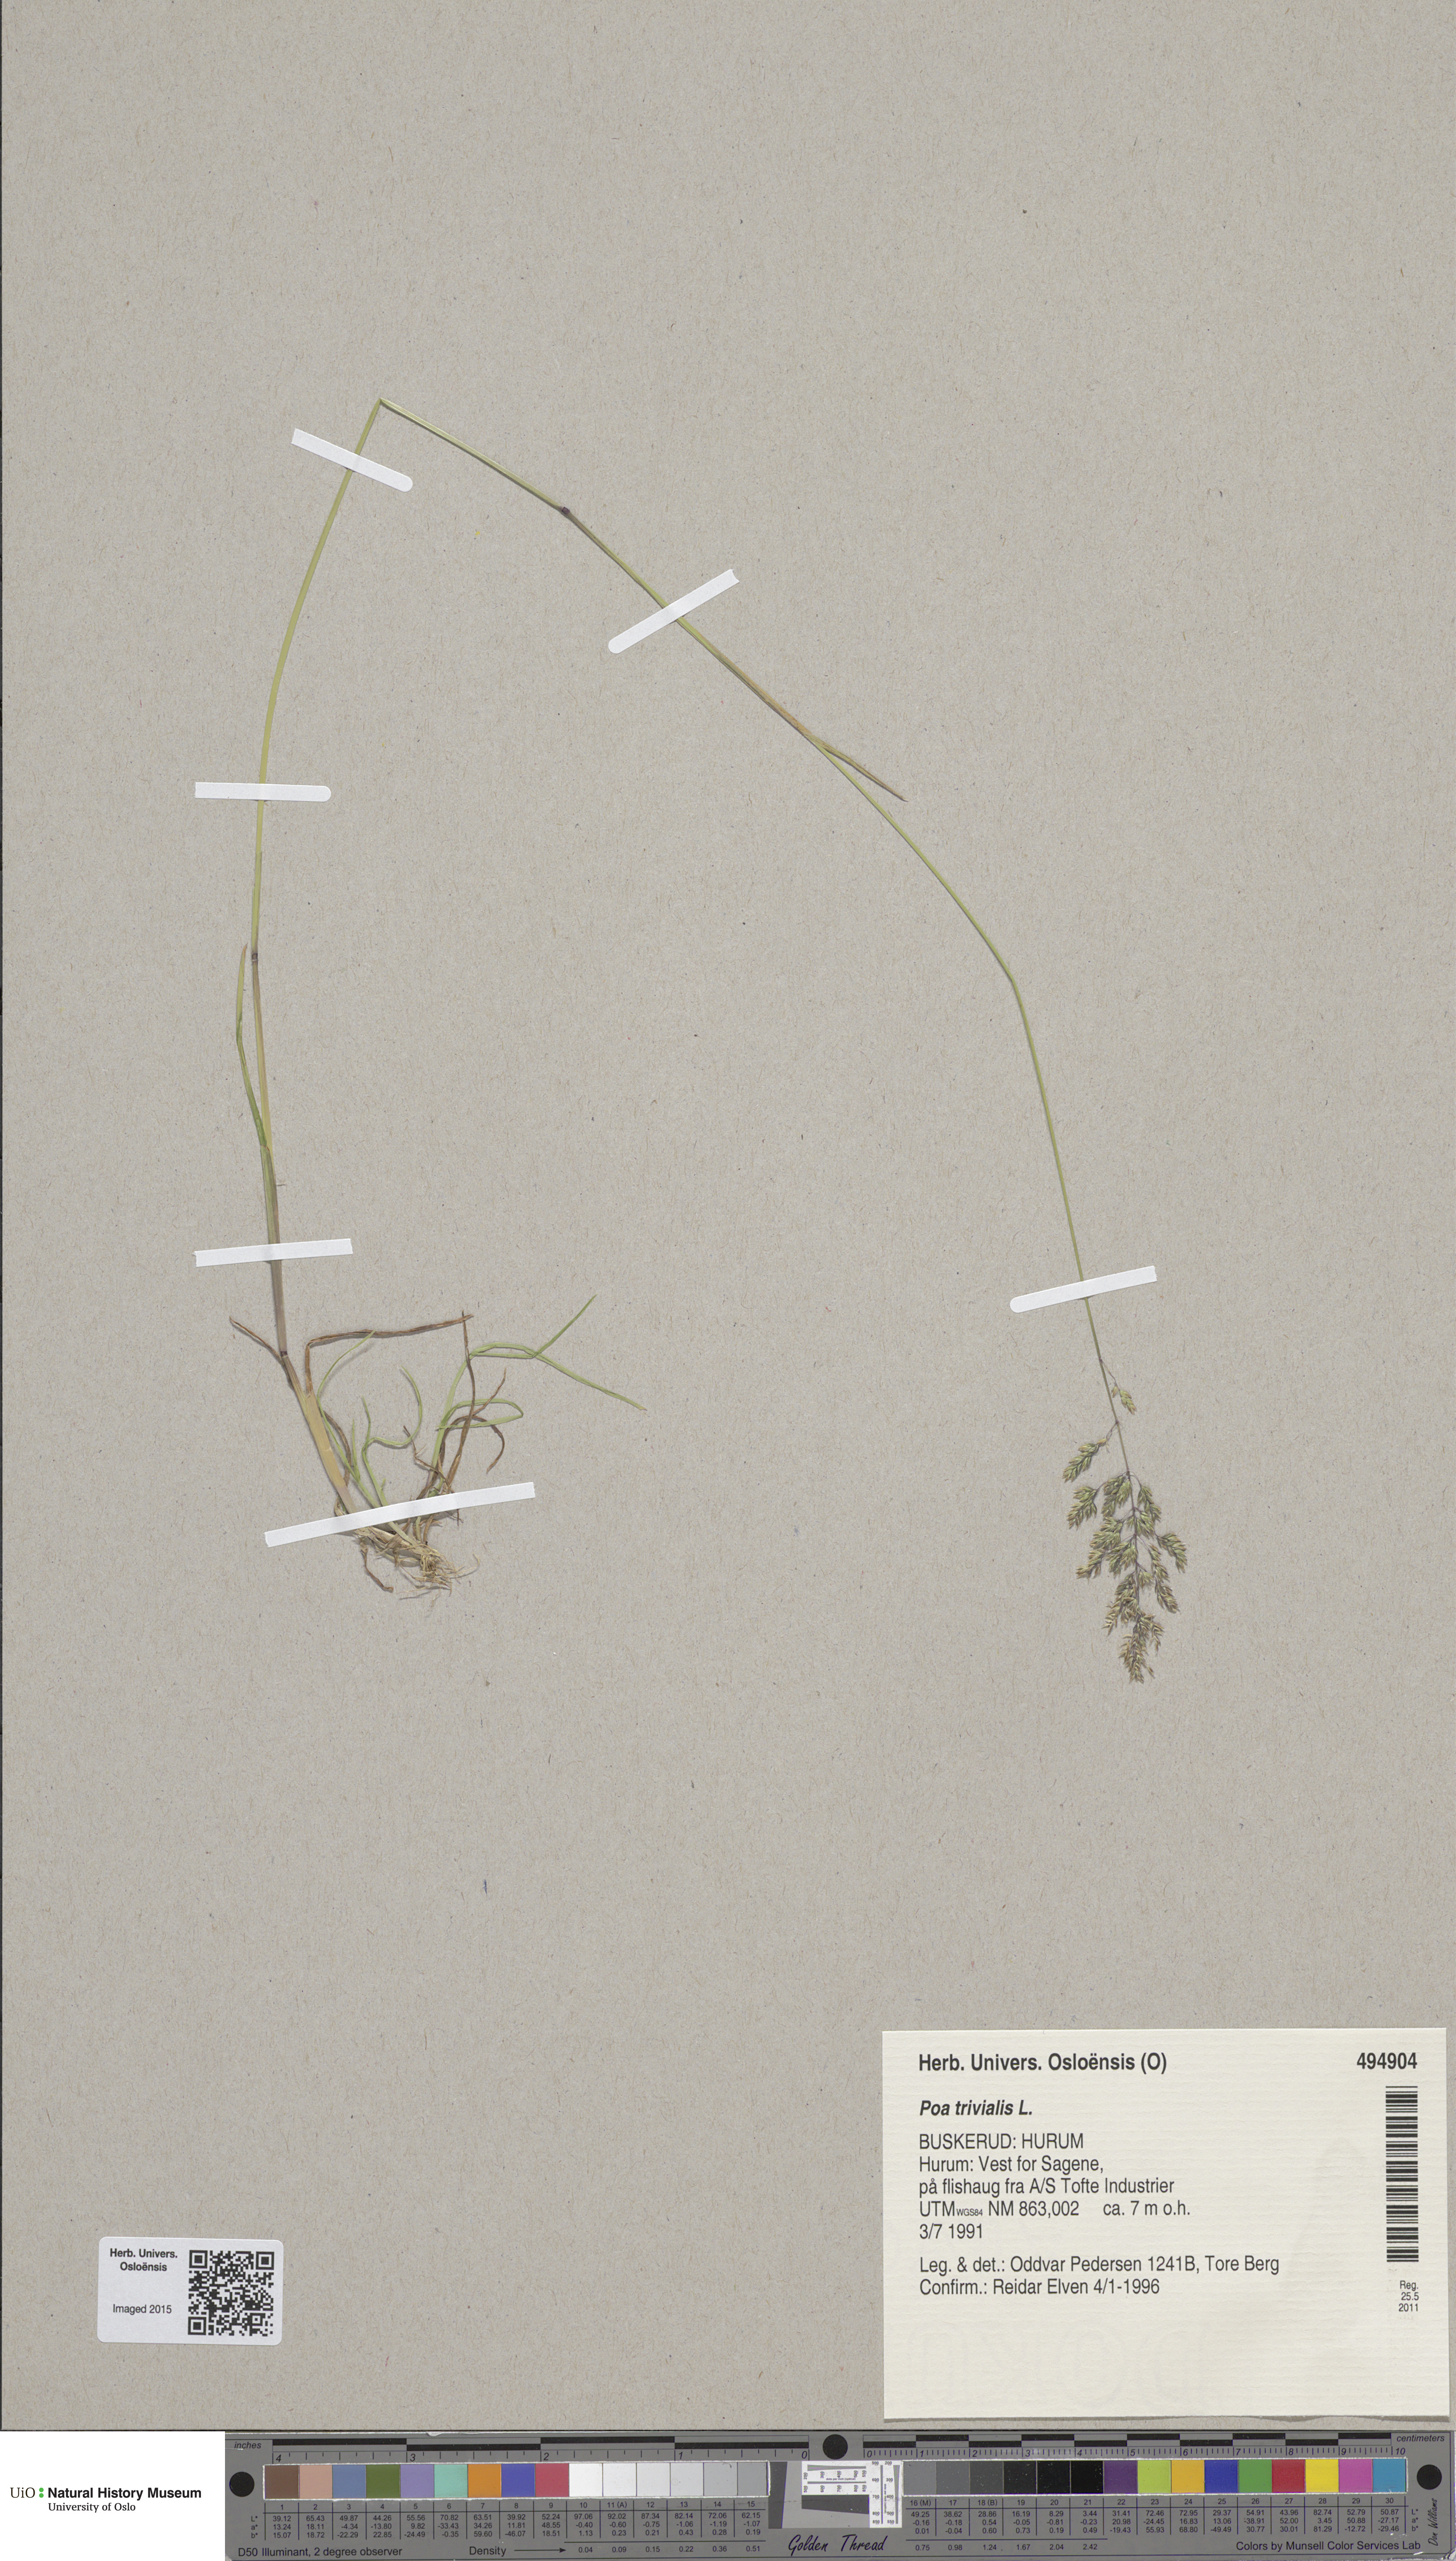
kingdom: Plantae
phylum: Tracheophyta
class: Liliopsida
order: Poales
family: Poaceae
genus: Poa
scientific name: Poa trivialis
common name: Rough bluegrass
